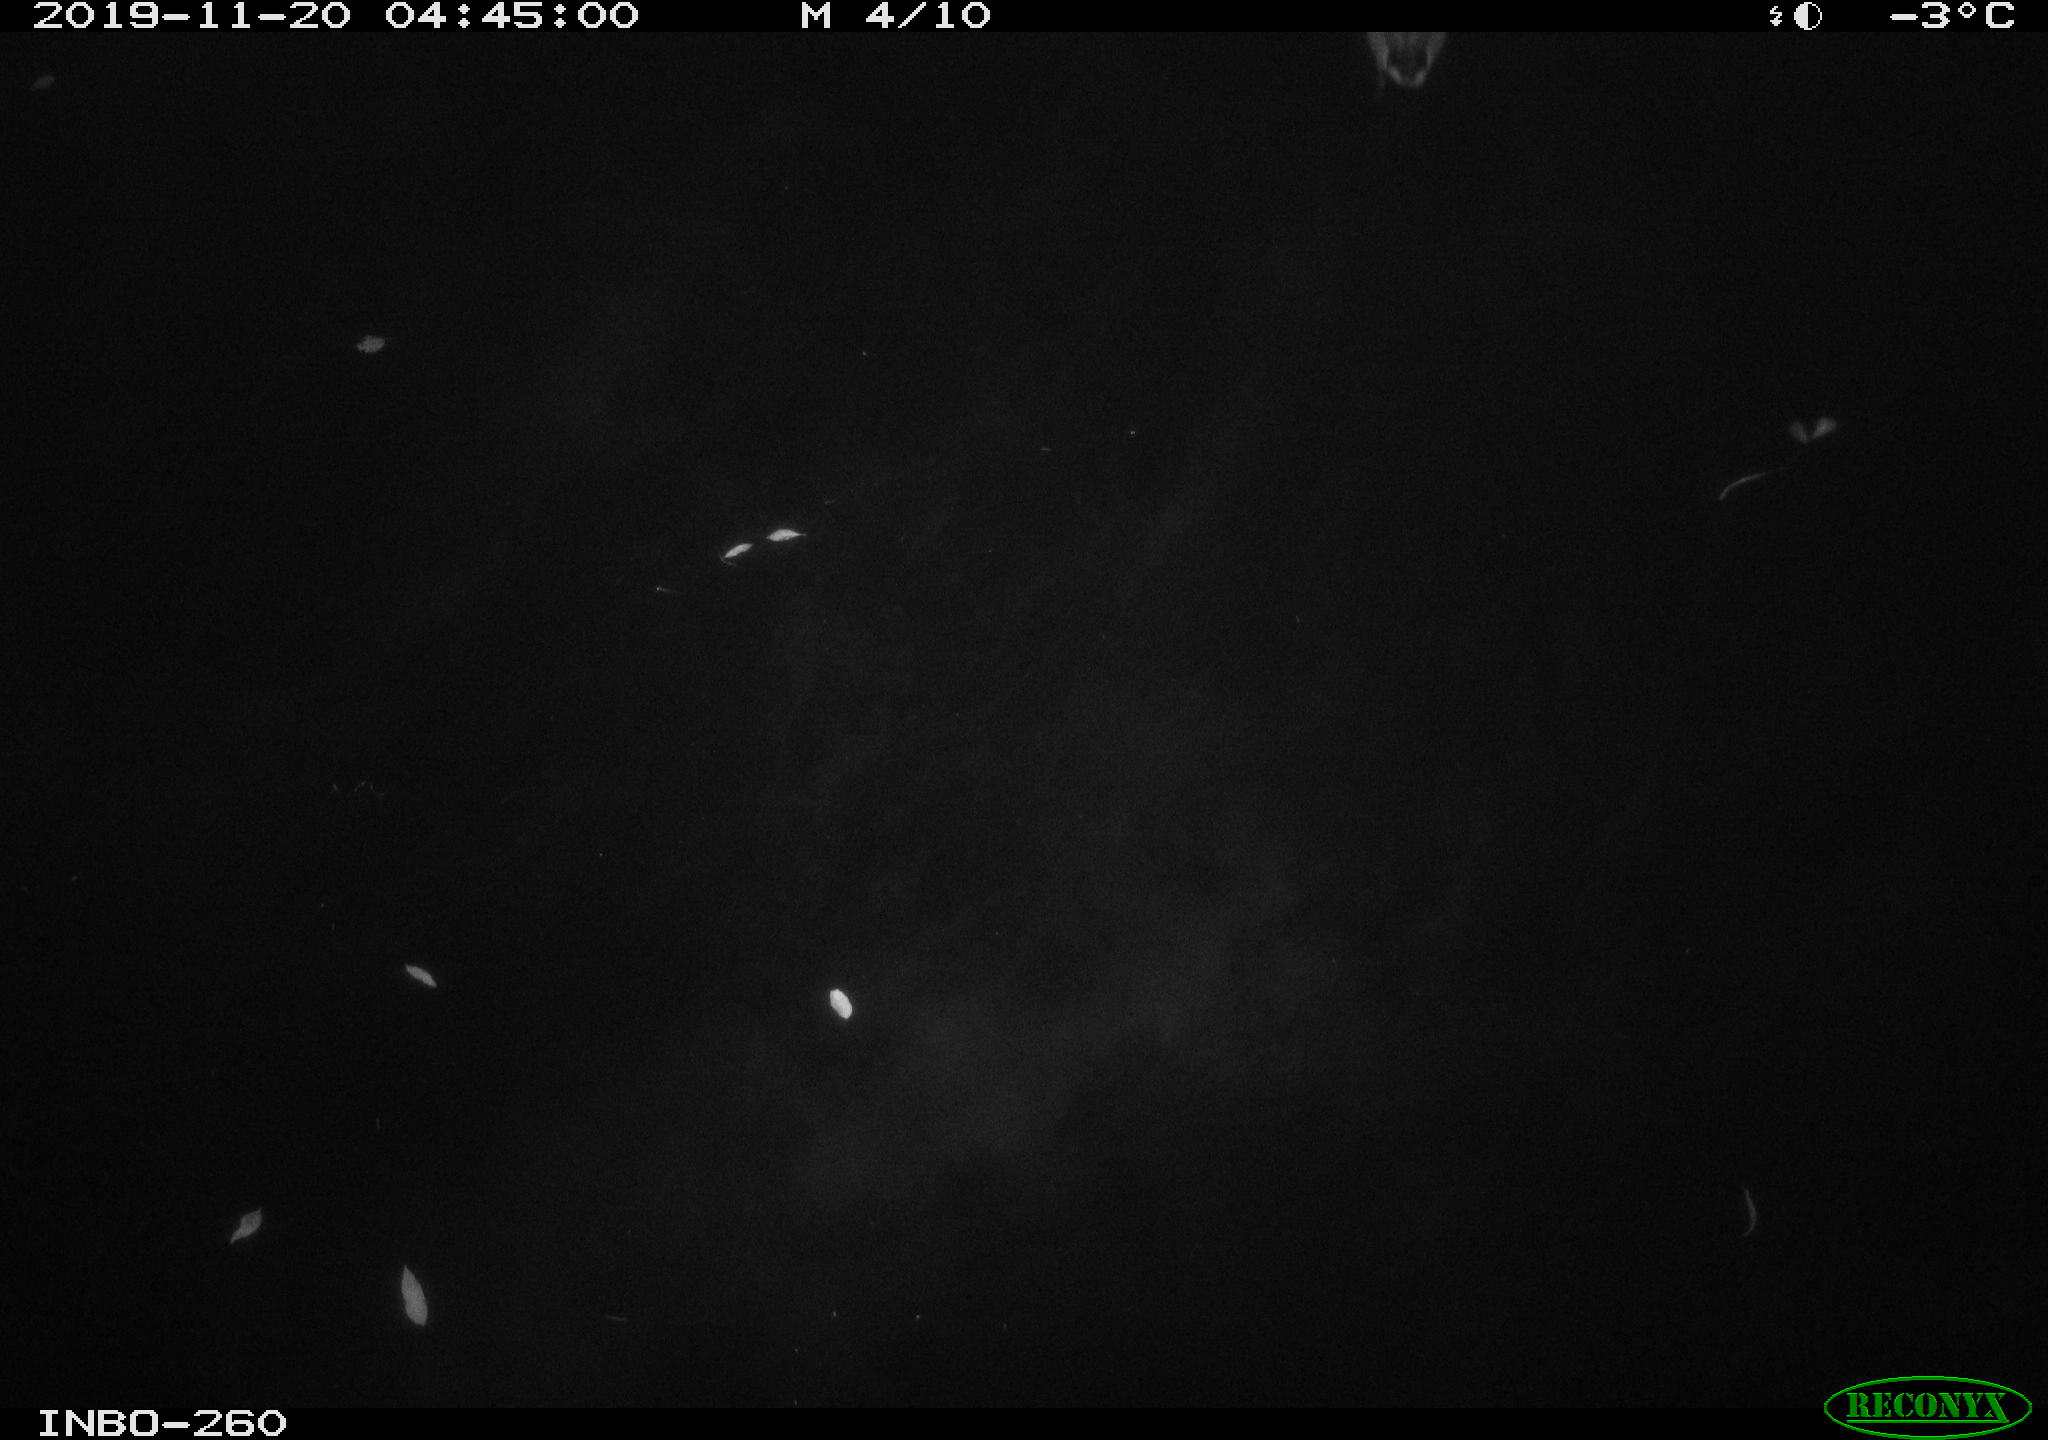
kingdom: Animalia
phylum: Chordata
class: Aves
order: Anseriformes
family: Anatidae
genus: Anas
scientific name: Anas platyrhynchos
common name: Mallard
